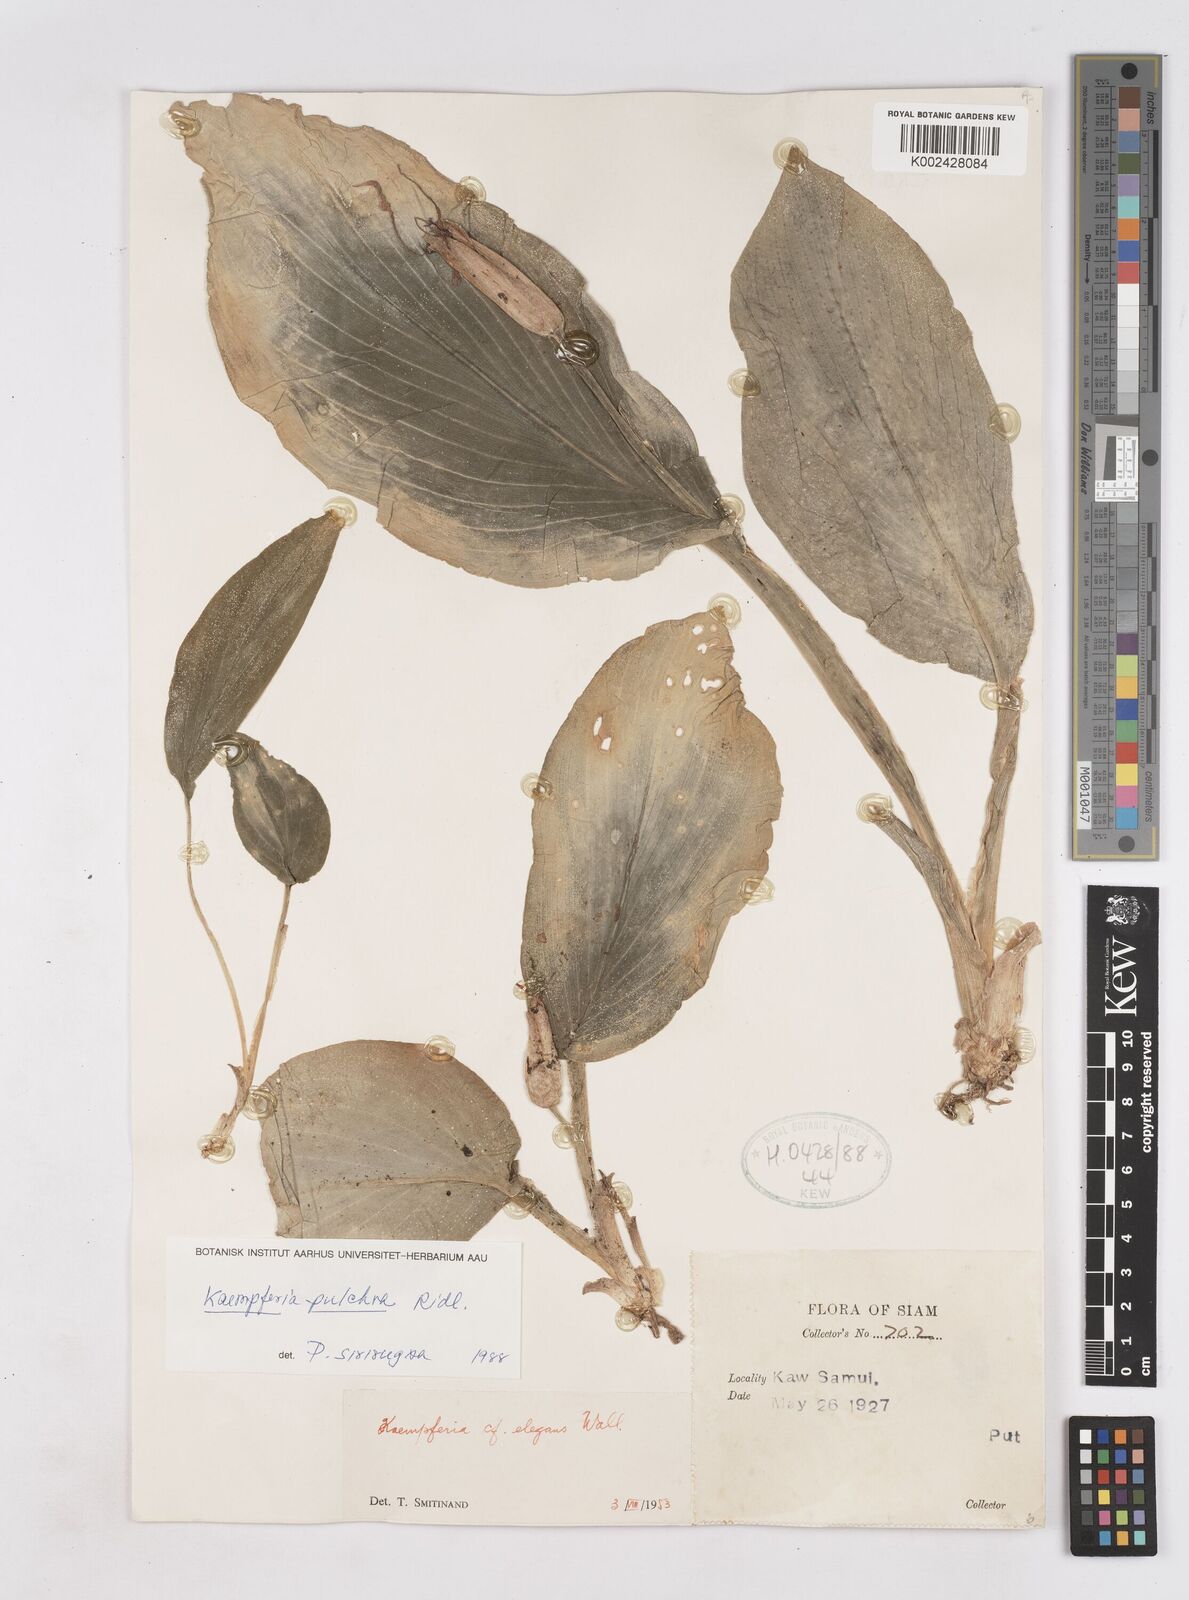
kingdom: Plantae
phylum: Tracheophyta
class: Liliopsida
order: Zingiberales
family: Zingiberaceae
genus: Kaempferia
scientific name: Kaempferia elegans
